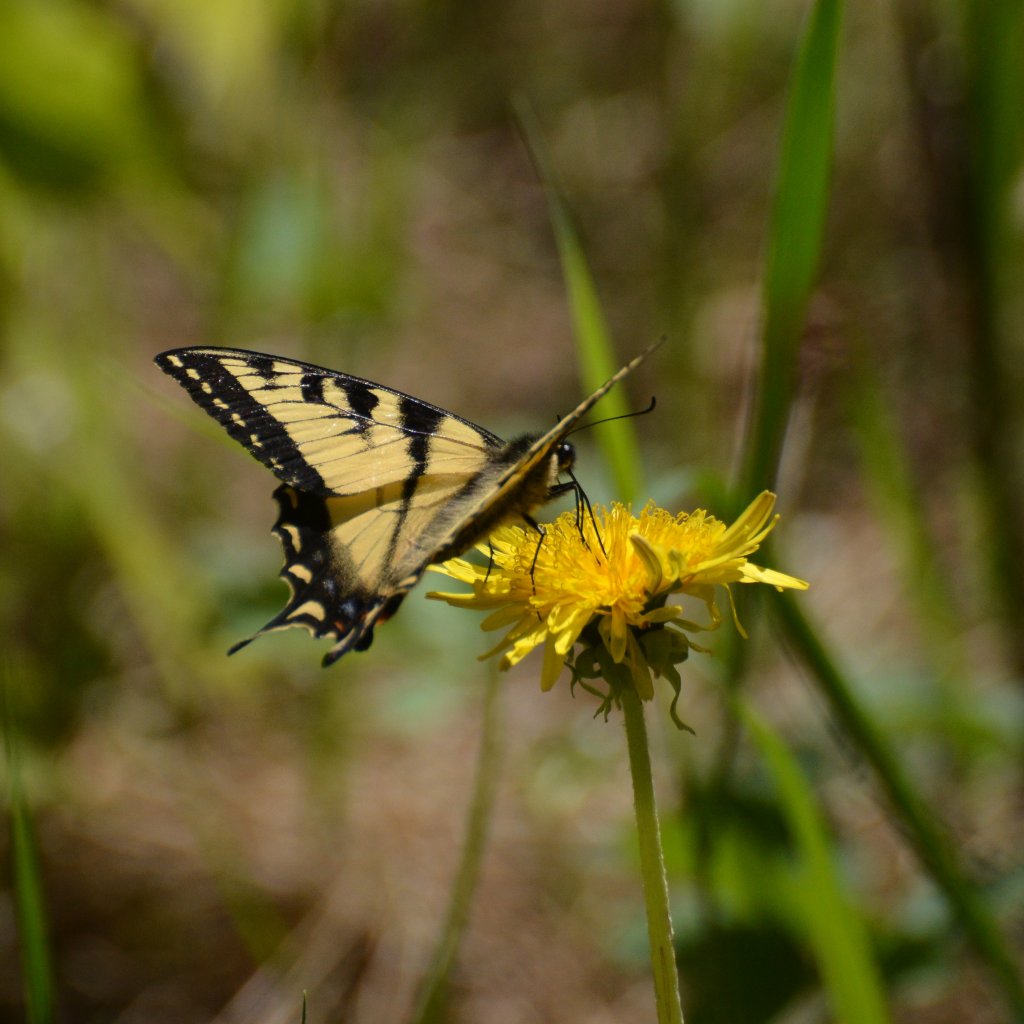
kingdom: Animalia
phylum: Arthropoda
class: Insecta
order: Lepidoptera
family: Papilionidae
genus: Pterourus
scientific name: Pterourus canadensis
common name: Canadian Tiger Swallowtail
